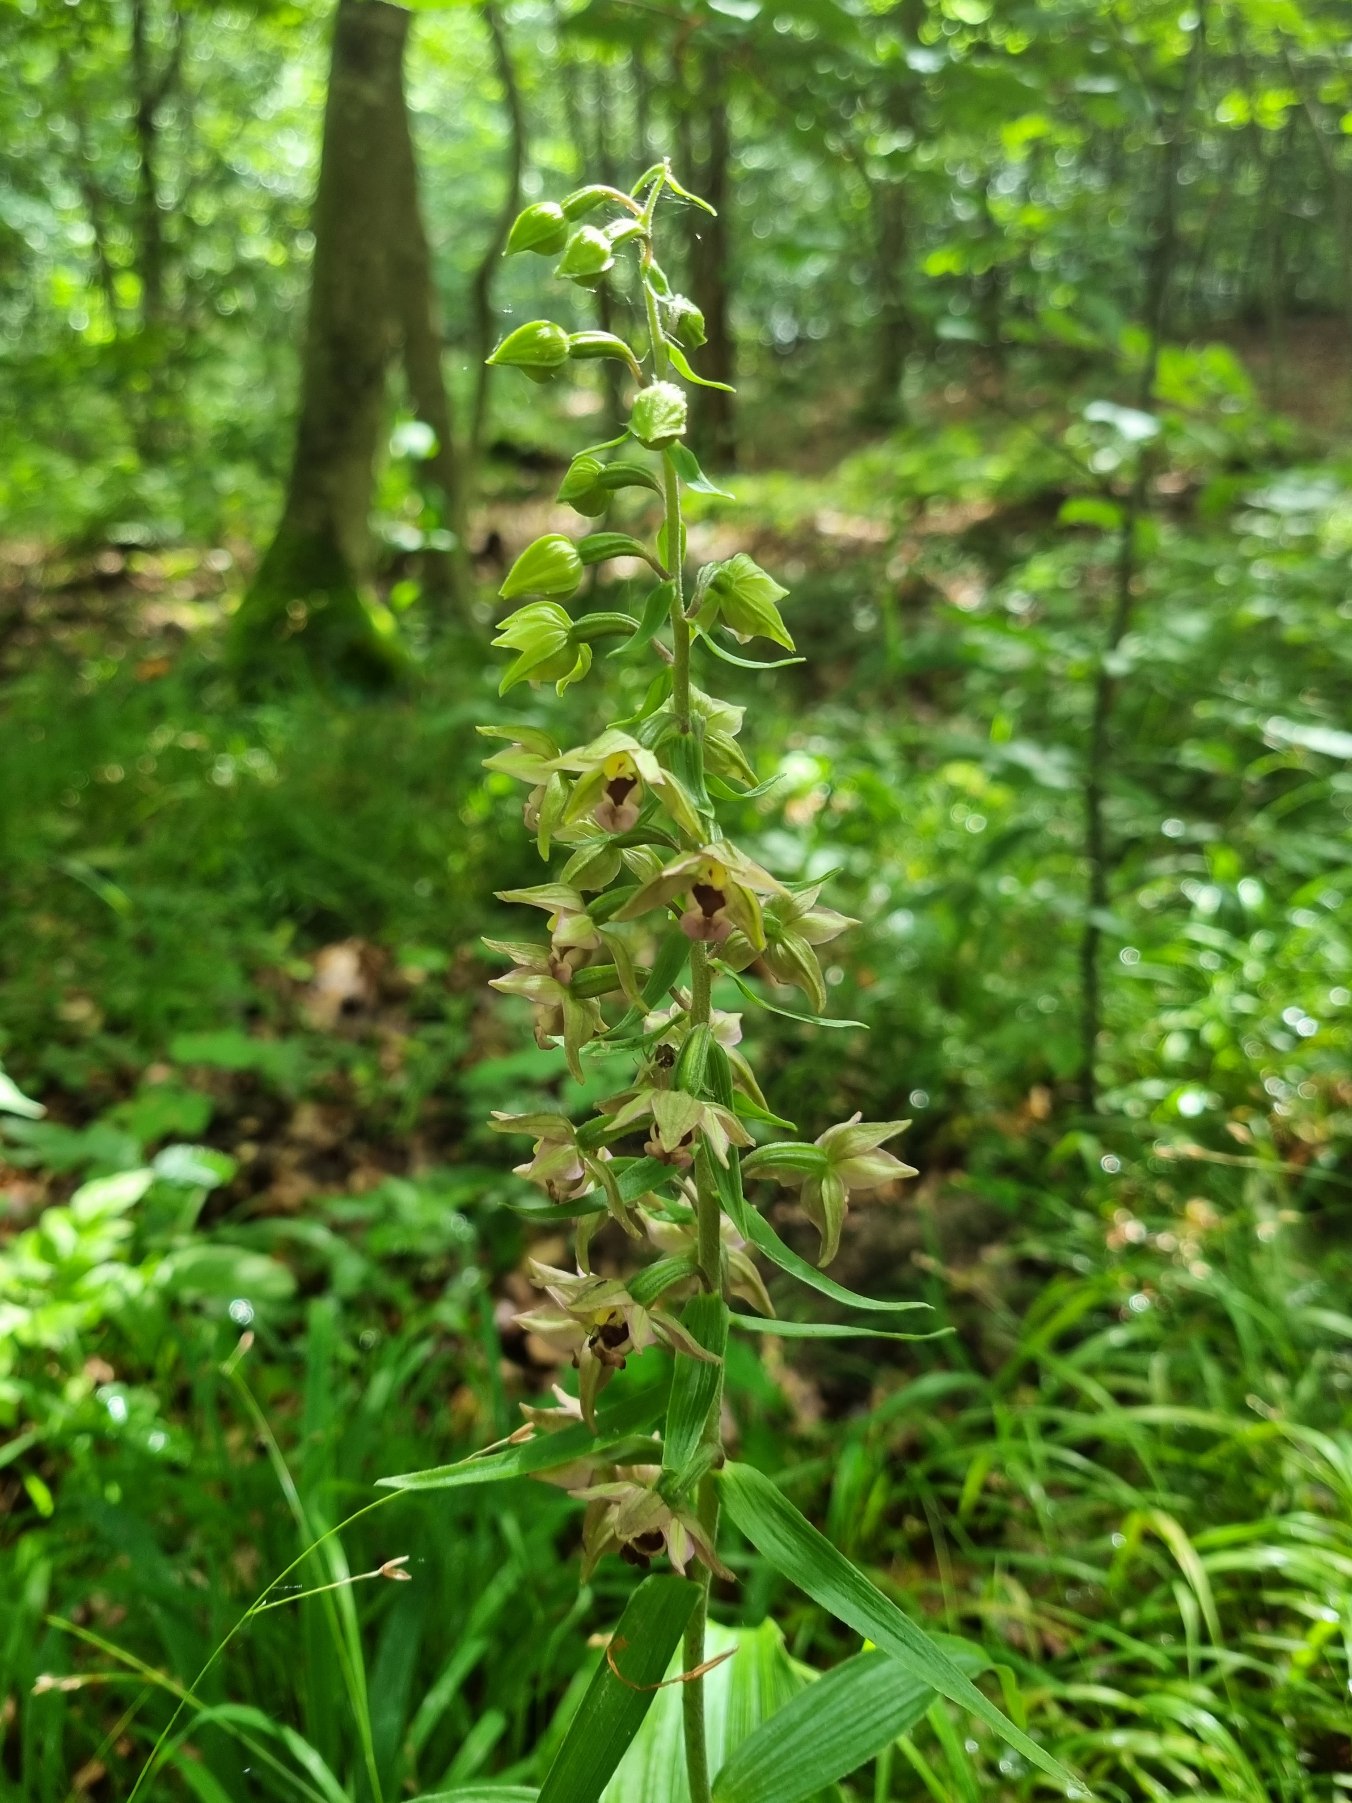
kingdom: Plantae
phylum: Tracheophyta
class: Liliopsida
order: Asparagales
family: Orchidaceae
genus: Epipactis
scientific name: Epipactis helleborine
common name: Skov-hullæbe
